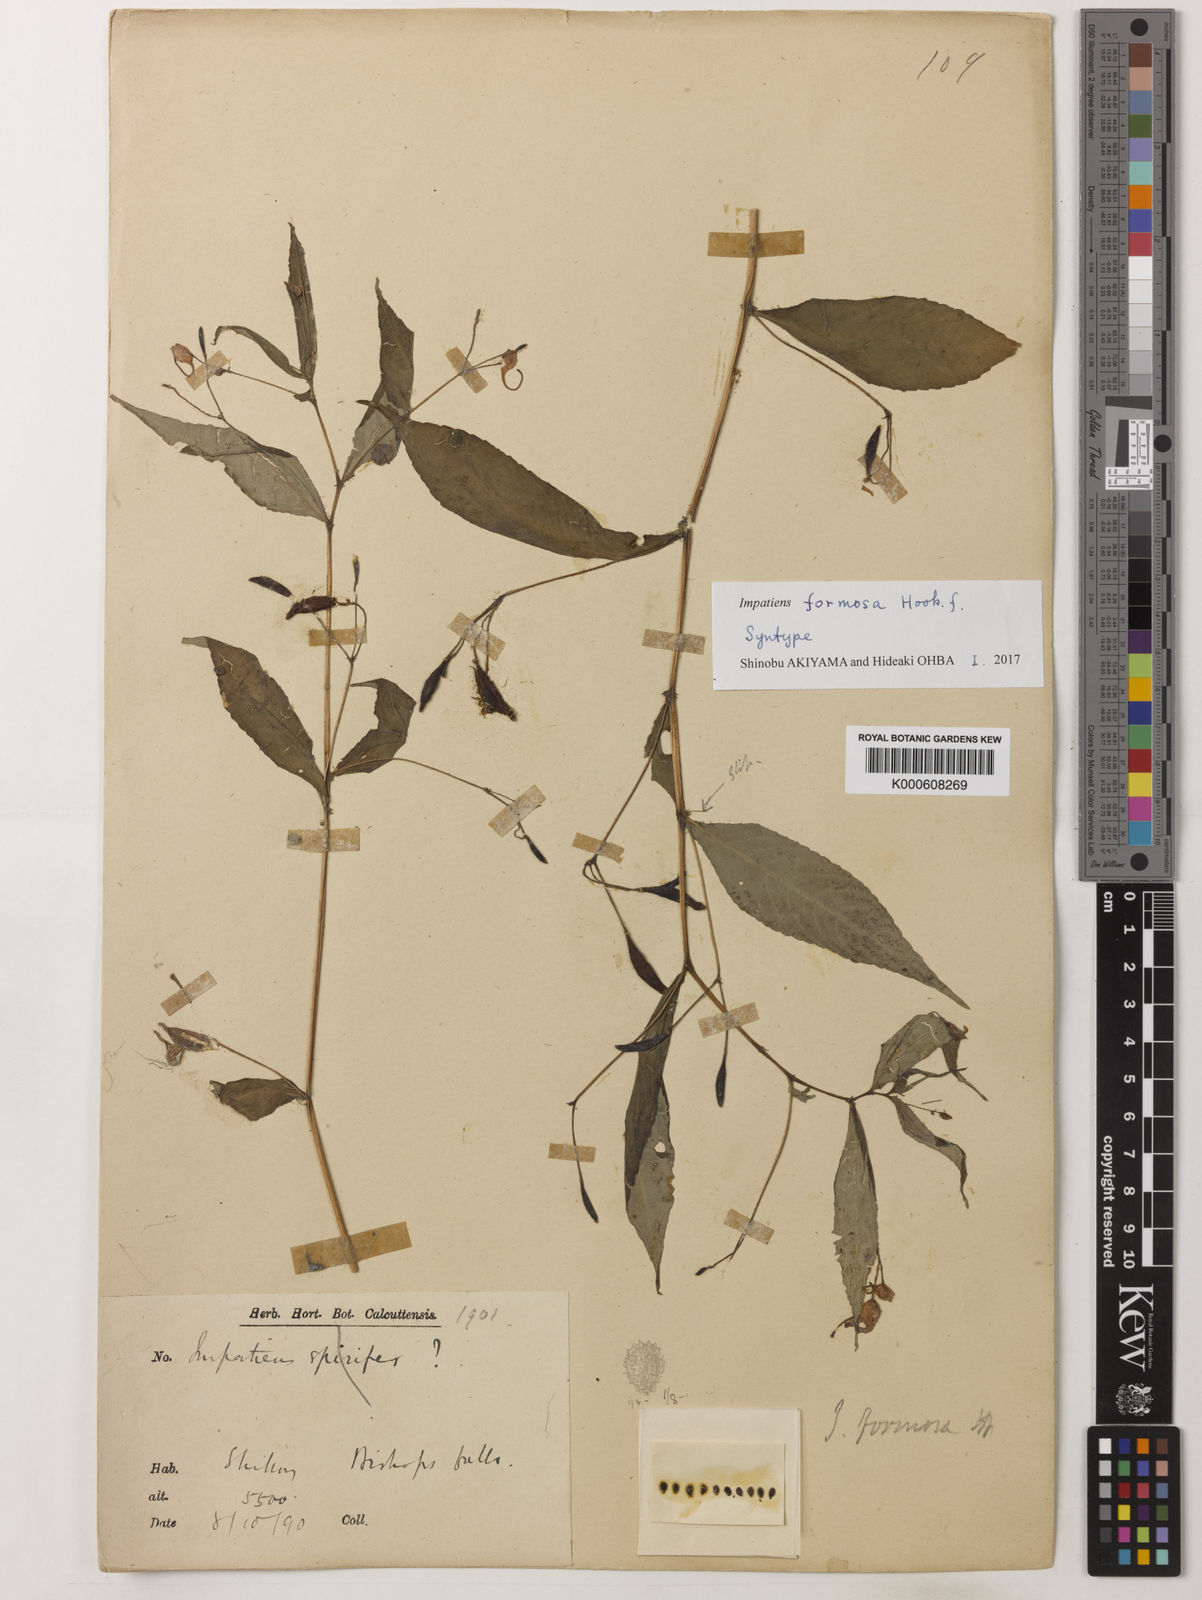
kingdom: Plantae
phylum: Tracheophyta
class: Magnoliopsida
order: Ericales
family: Balsaminaceae
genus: Impatiens
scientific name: Impatiens formosa
